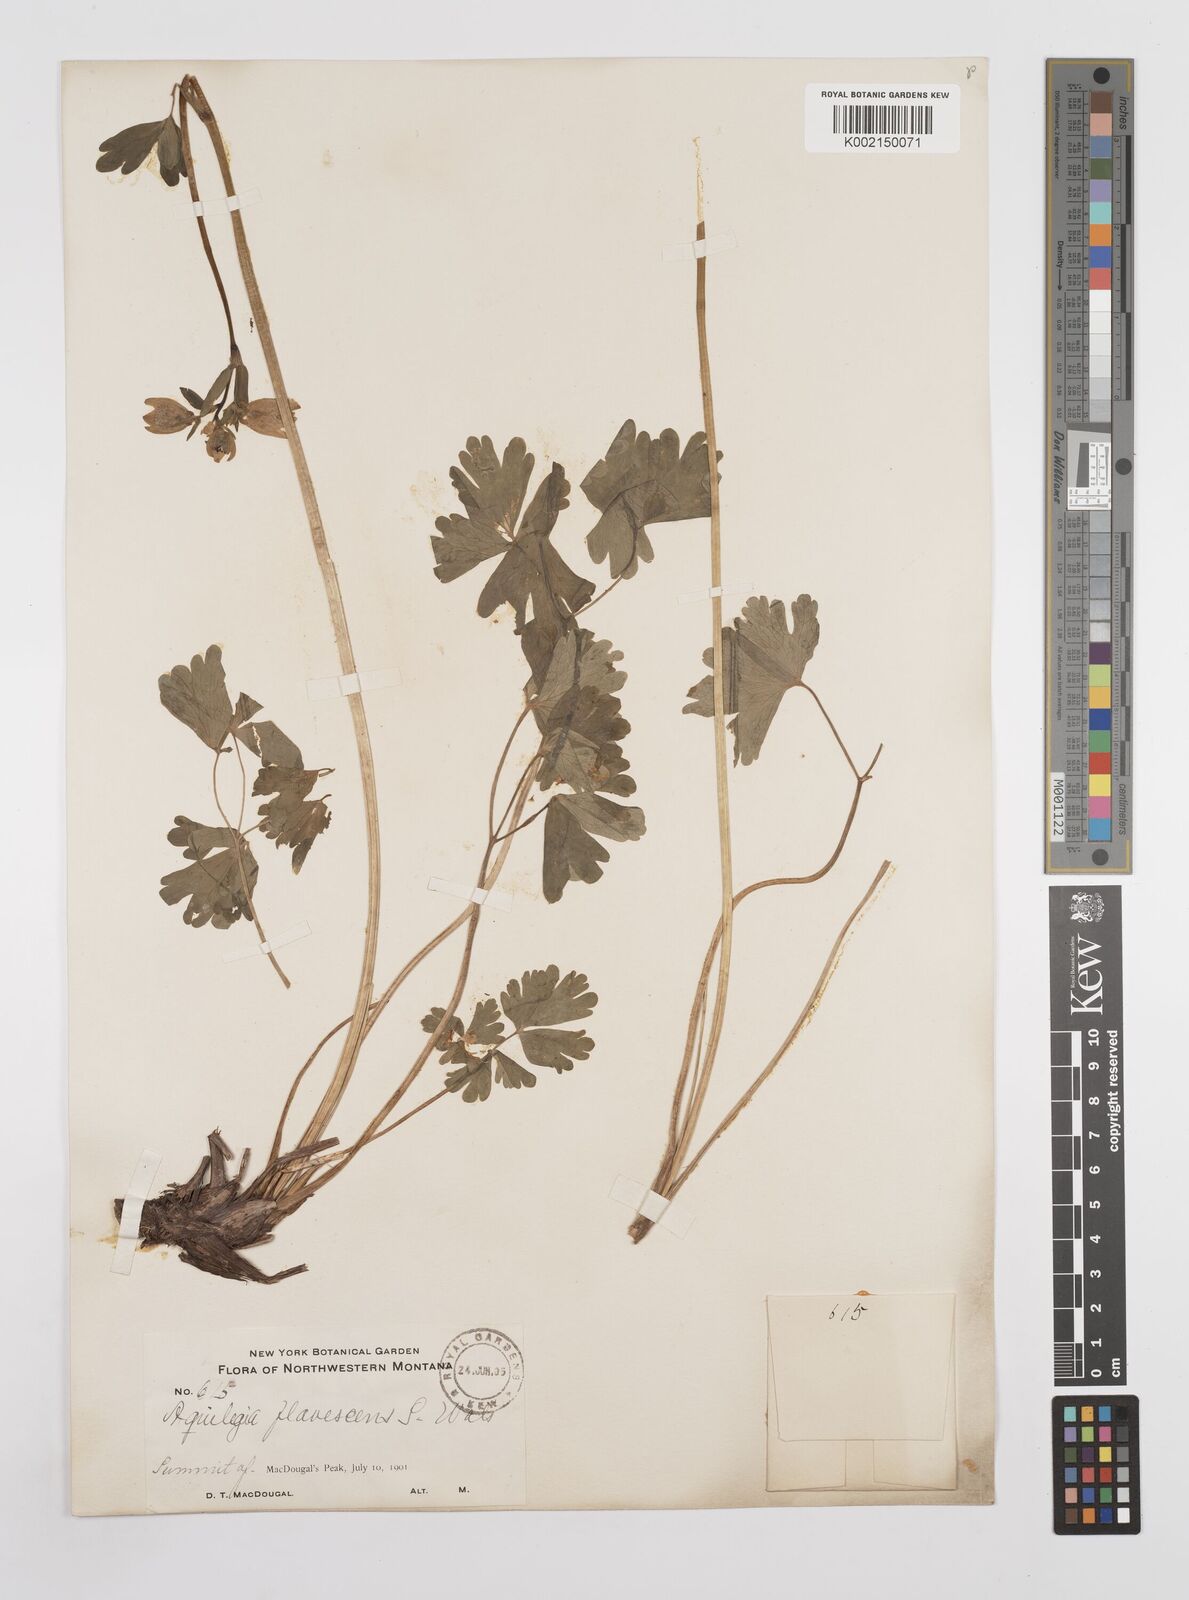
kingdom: Plantae
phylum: Tracheophyta
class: Magnoliopsida
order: Ranunculales
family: Ranunculaceae
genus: Aquilegia
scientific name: Aquilegia flavescens
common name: Yellow columbine
